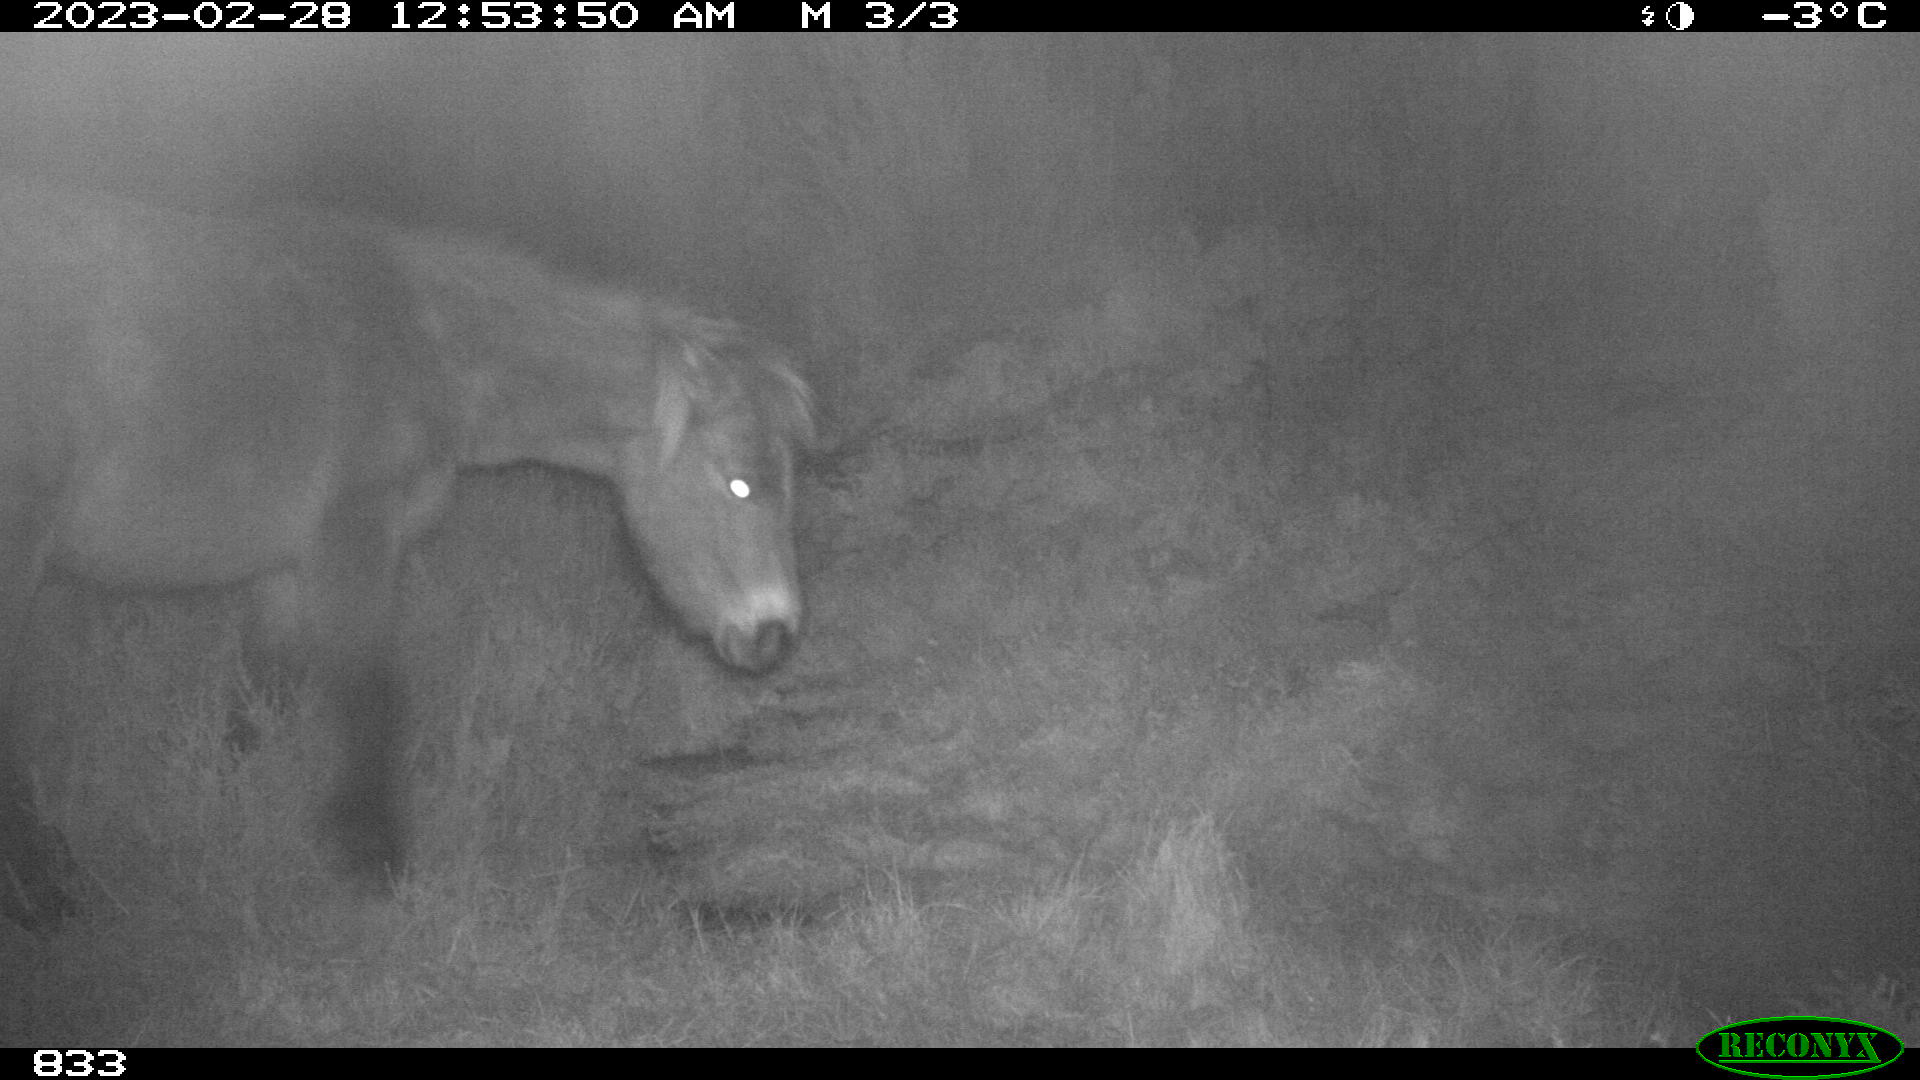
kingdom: Animalia
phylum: Chordata
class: Mammalia
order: Perissodactyla
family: Equidae
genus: Equus
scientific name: Equus caballus
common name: Horse
